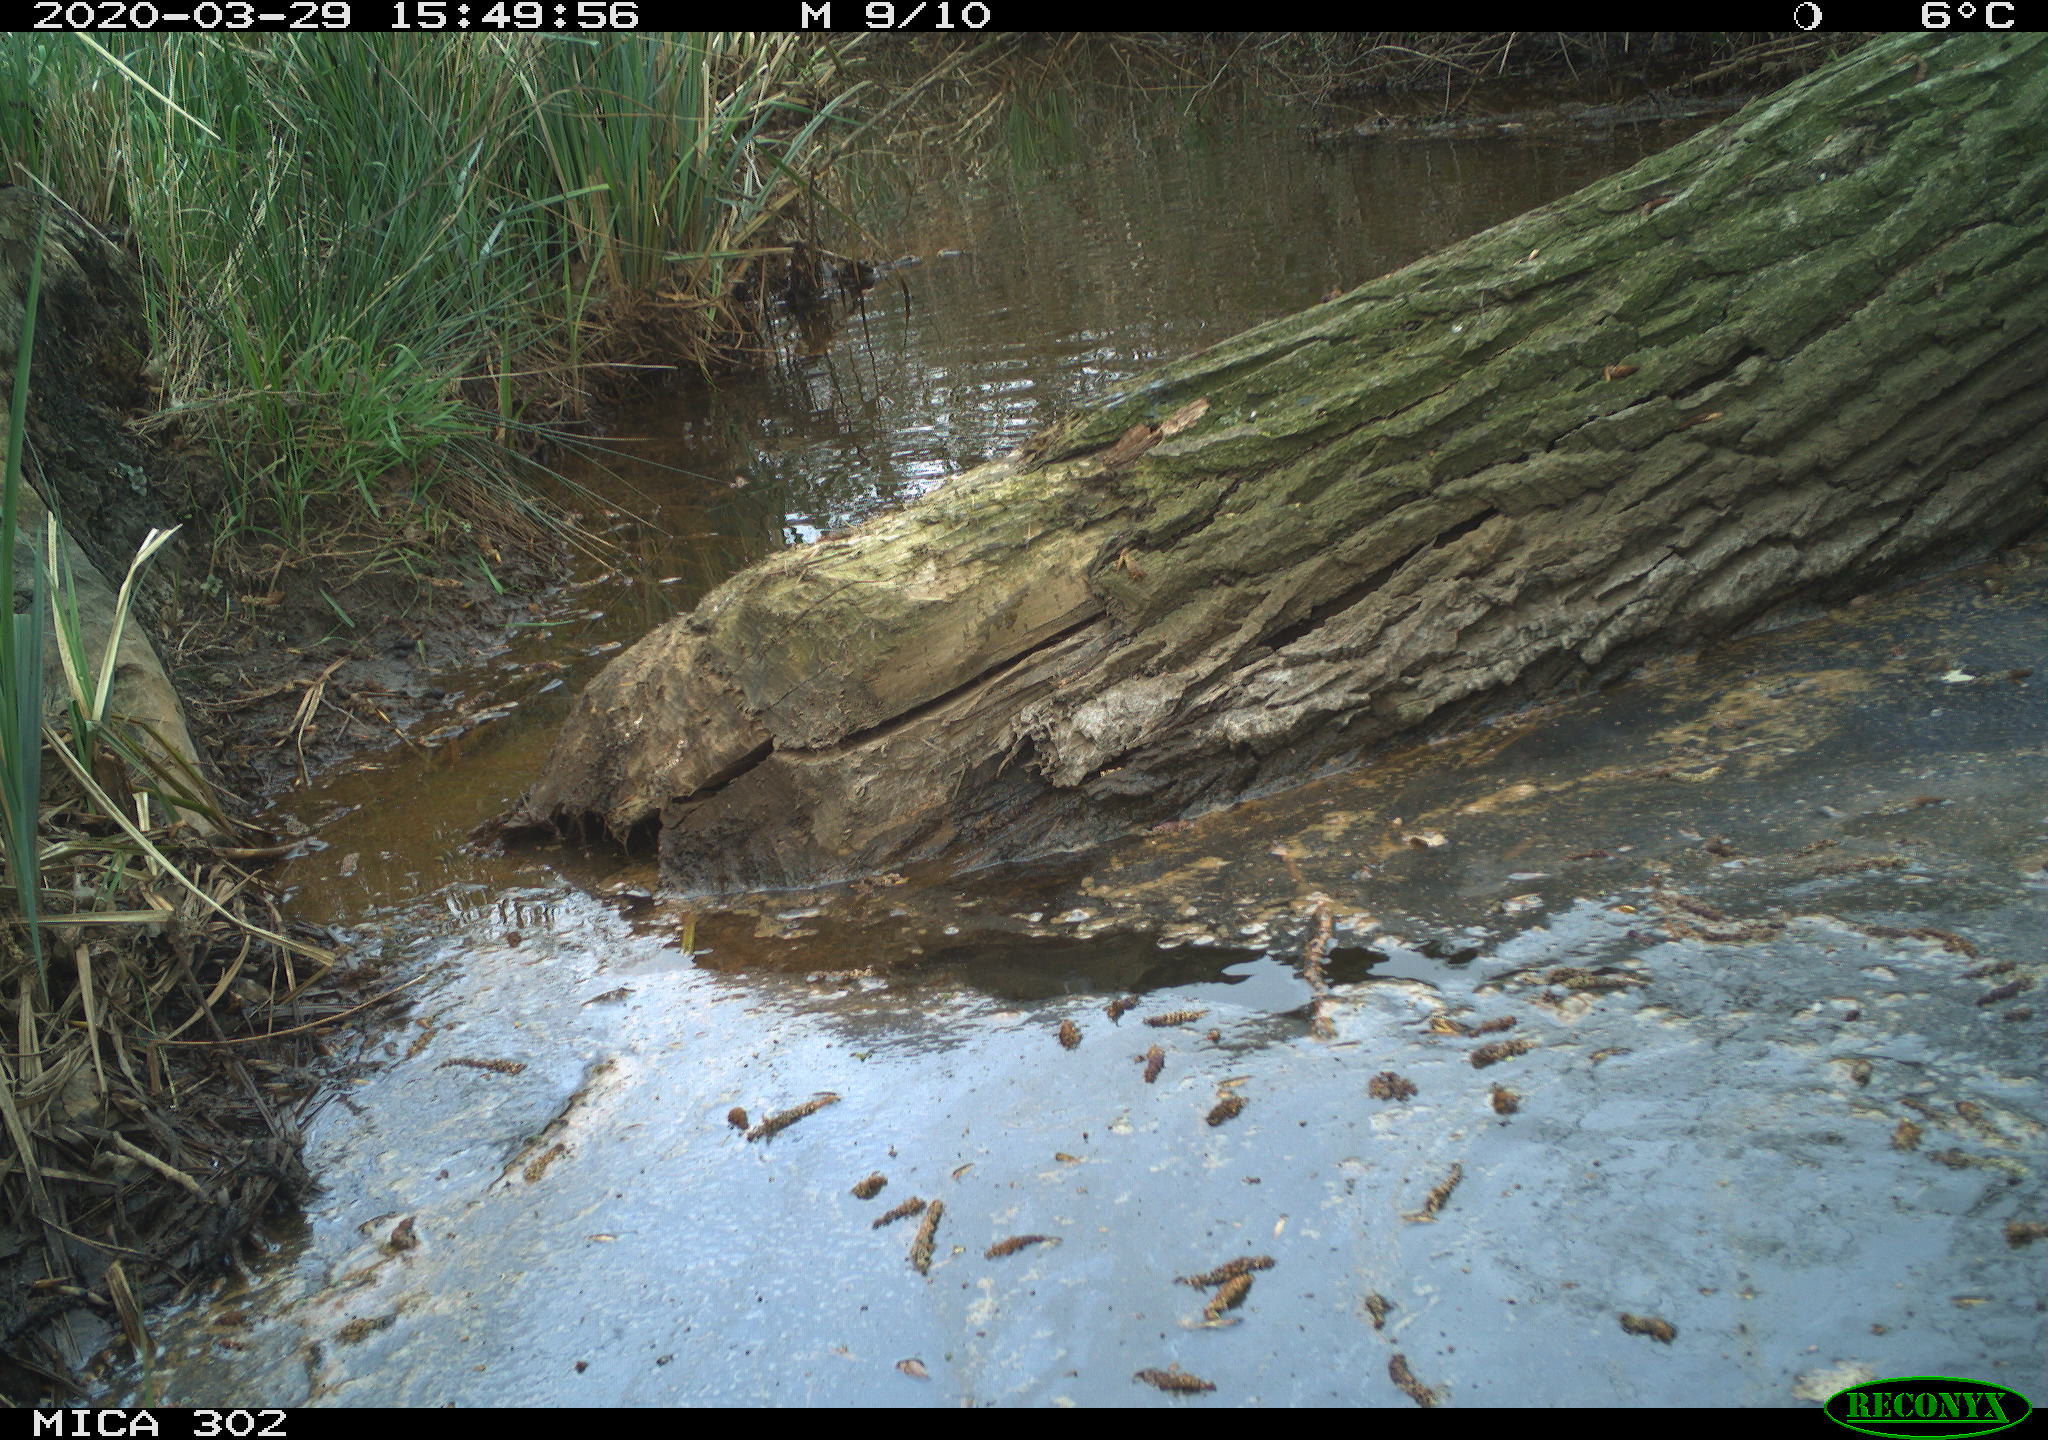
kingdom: Animalia
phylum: Chordata
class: Aves
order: Anseriformes
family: Anatidae
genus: Aix
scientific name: Aix galericulata
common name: Mandarin duck
